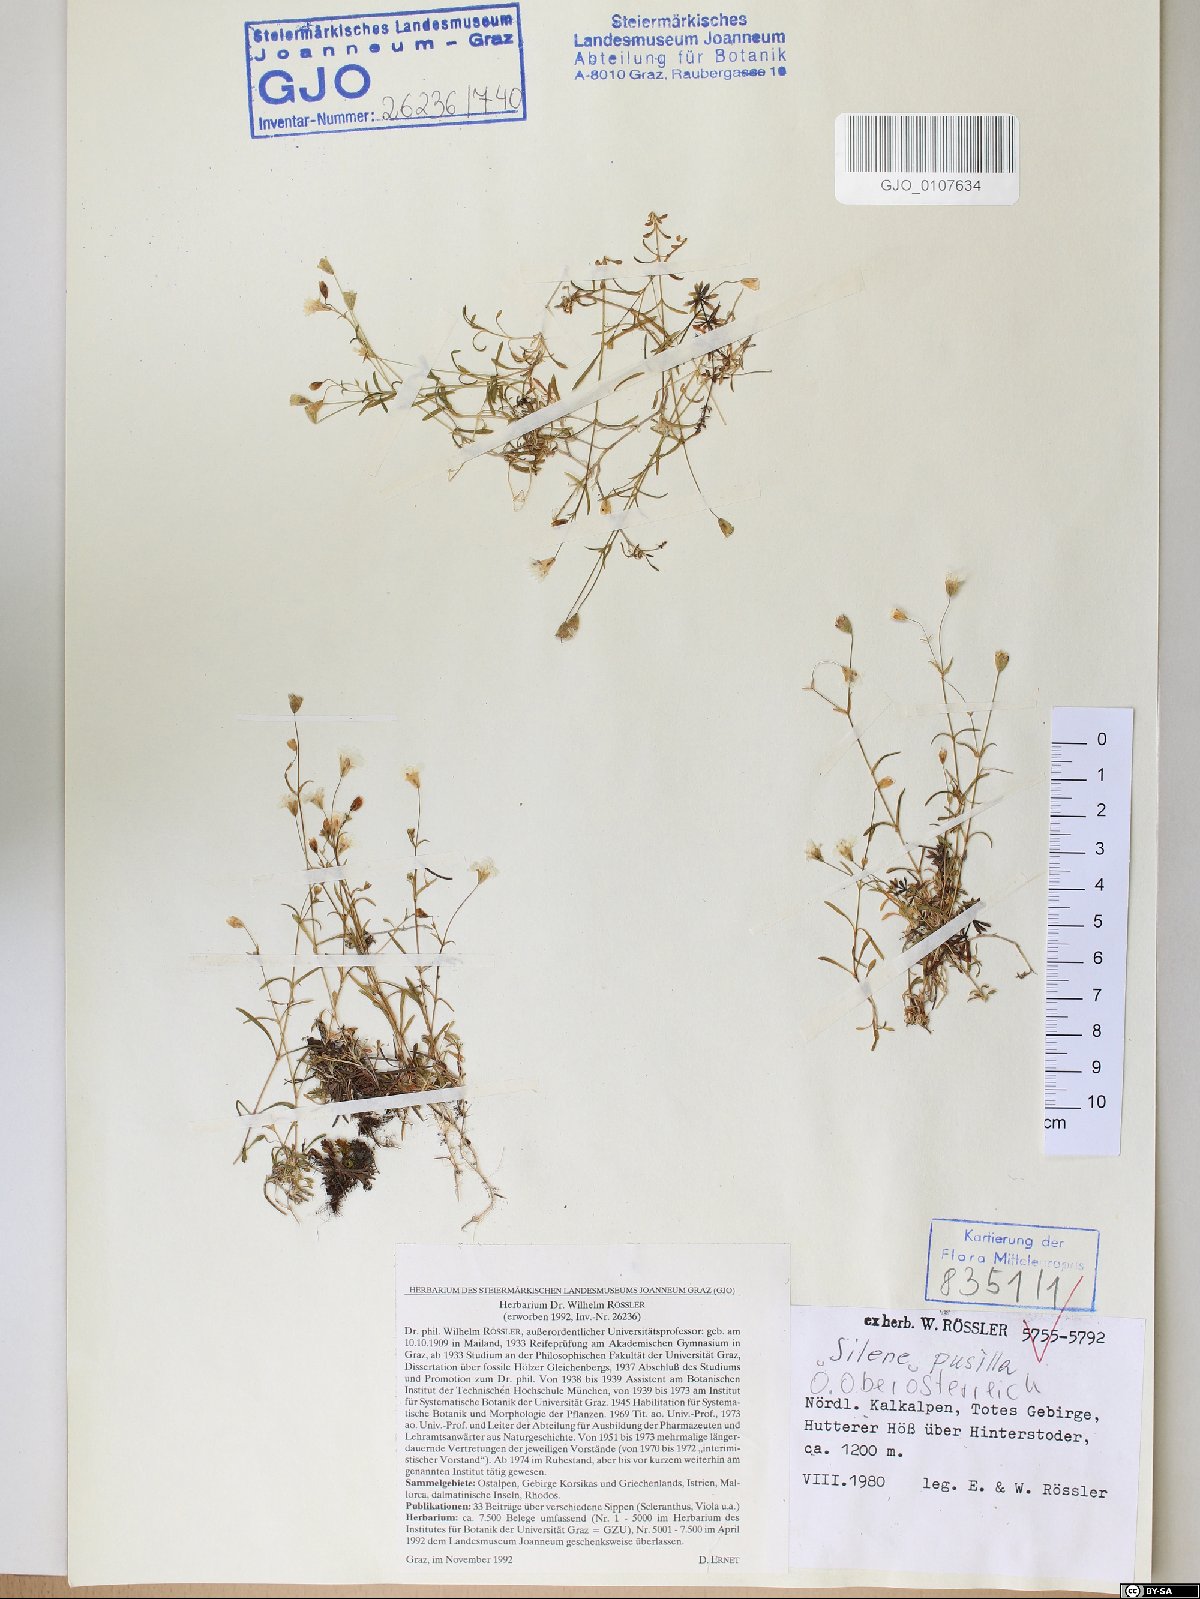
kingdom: Plantae
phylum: Tracheophyta
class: Magnoliopsida
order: Caryophyllales
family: Caryophyllaceae
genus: Heliosperma
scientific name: Heliosperma pusillum
